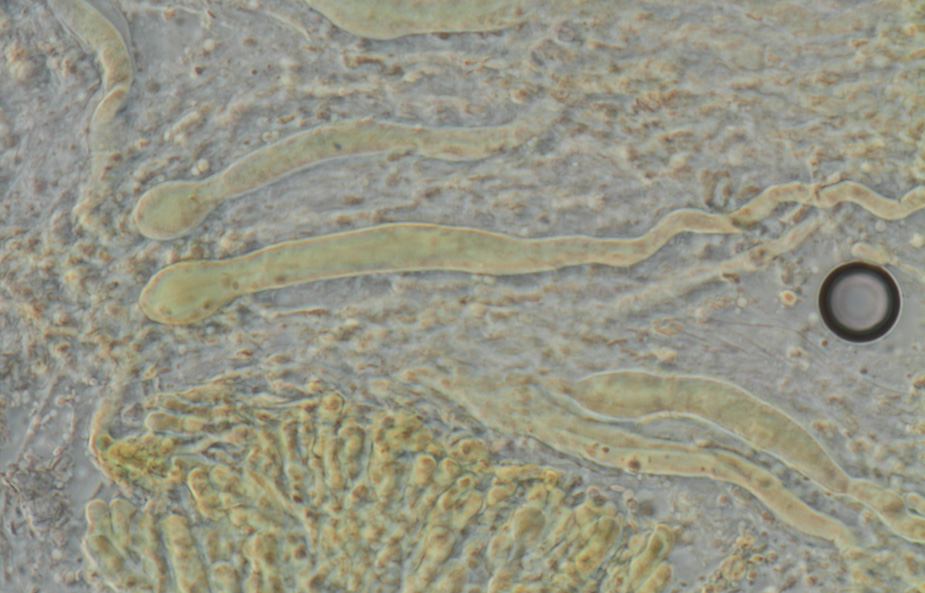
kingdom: Fungi
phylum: Basidiomycota
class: Agaricomycetes
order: Russulales
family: Stereaceae
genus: Gloeocystidiellum
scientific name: Gloeocystidiellum luridum
